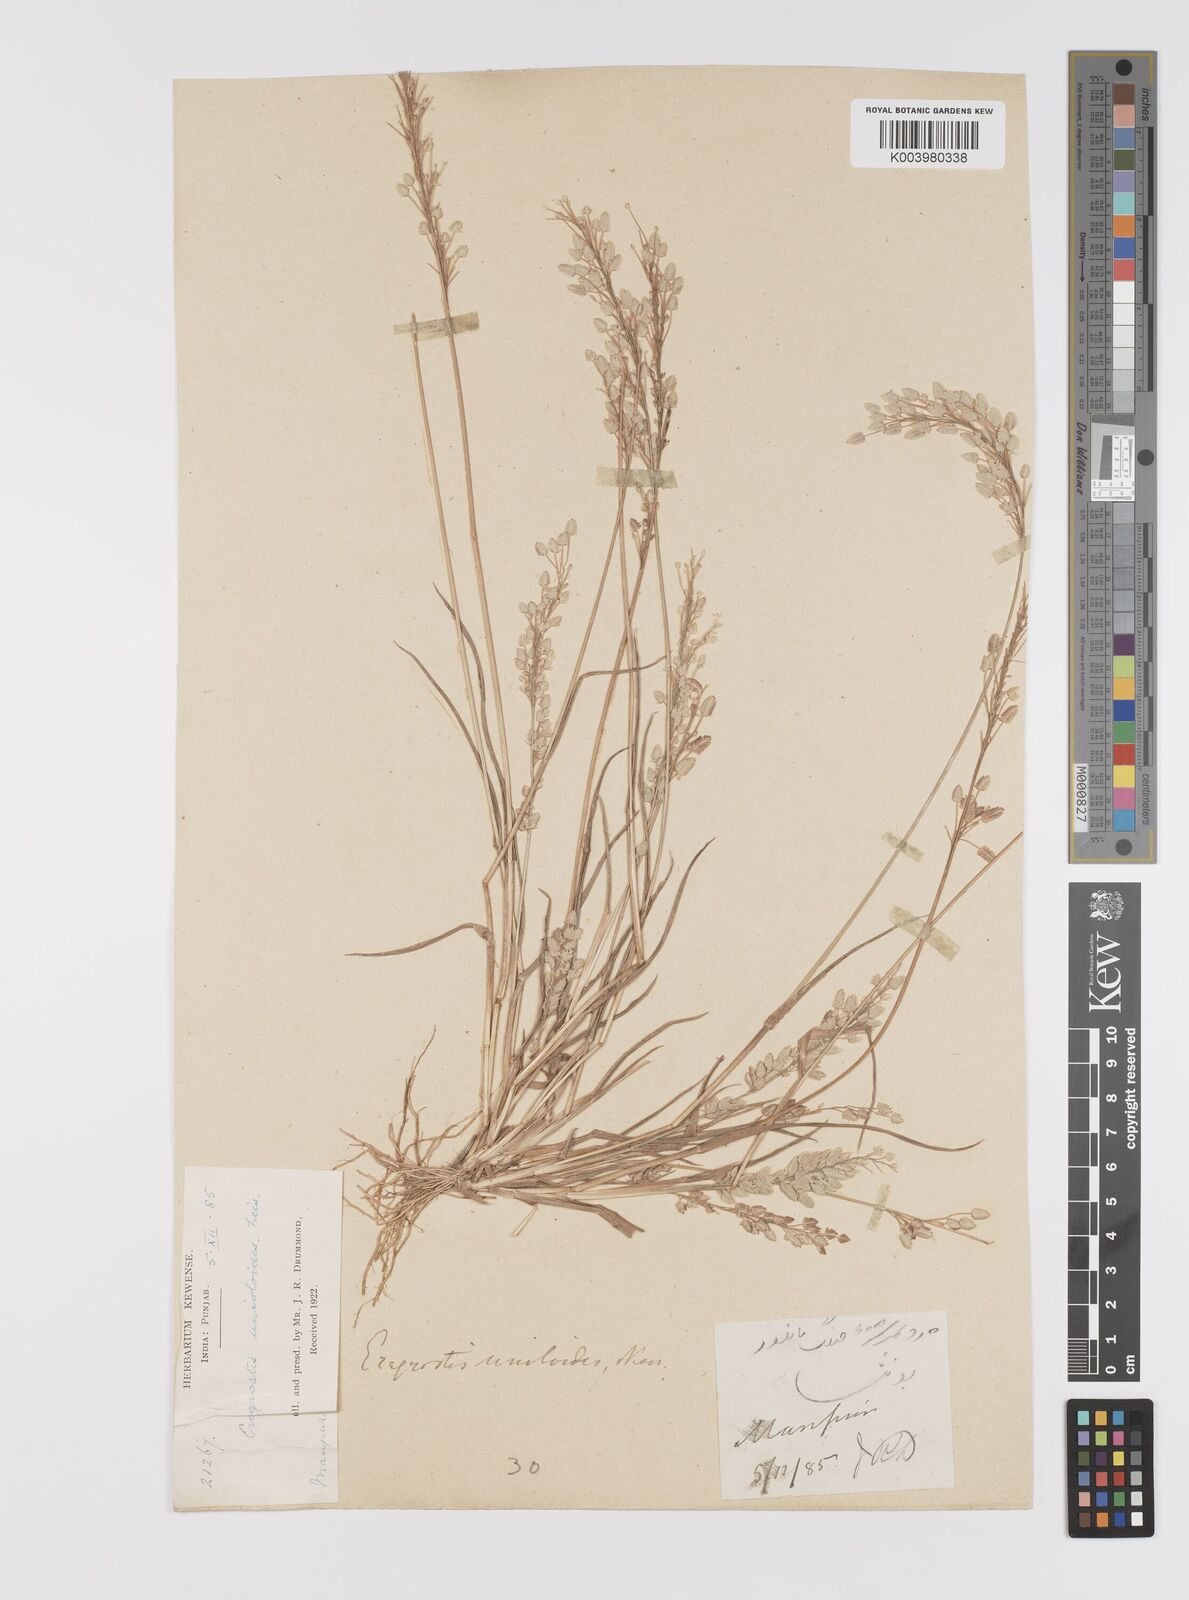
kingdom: Plantae
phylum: Tracheophyta
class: Liliopsida
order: Poales
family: Poaceae
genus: Eragrostis
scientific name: Eragrostis unioloides
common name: Chinese lovegrass
